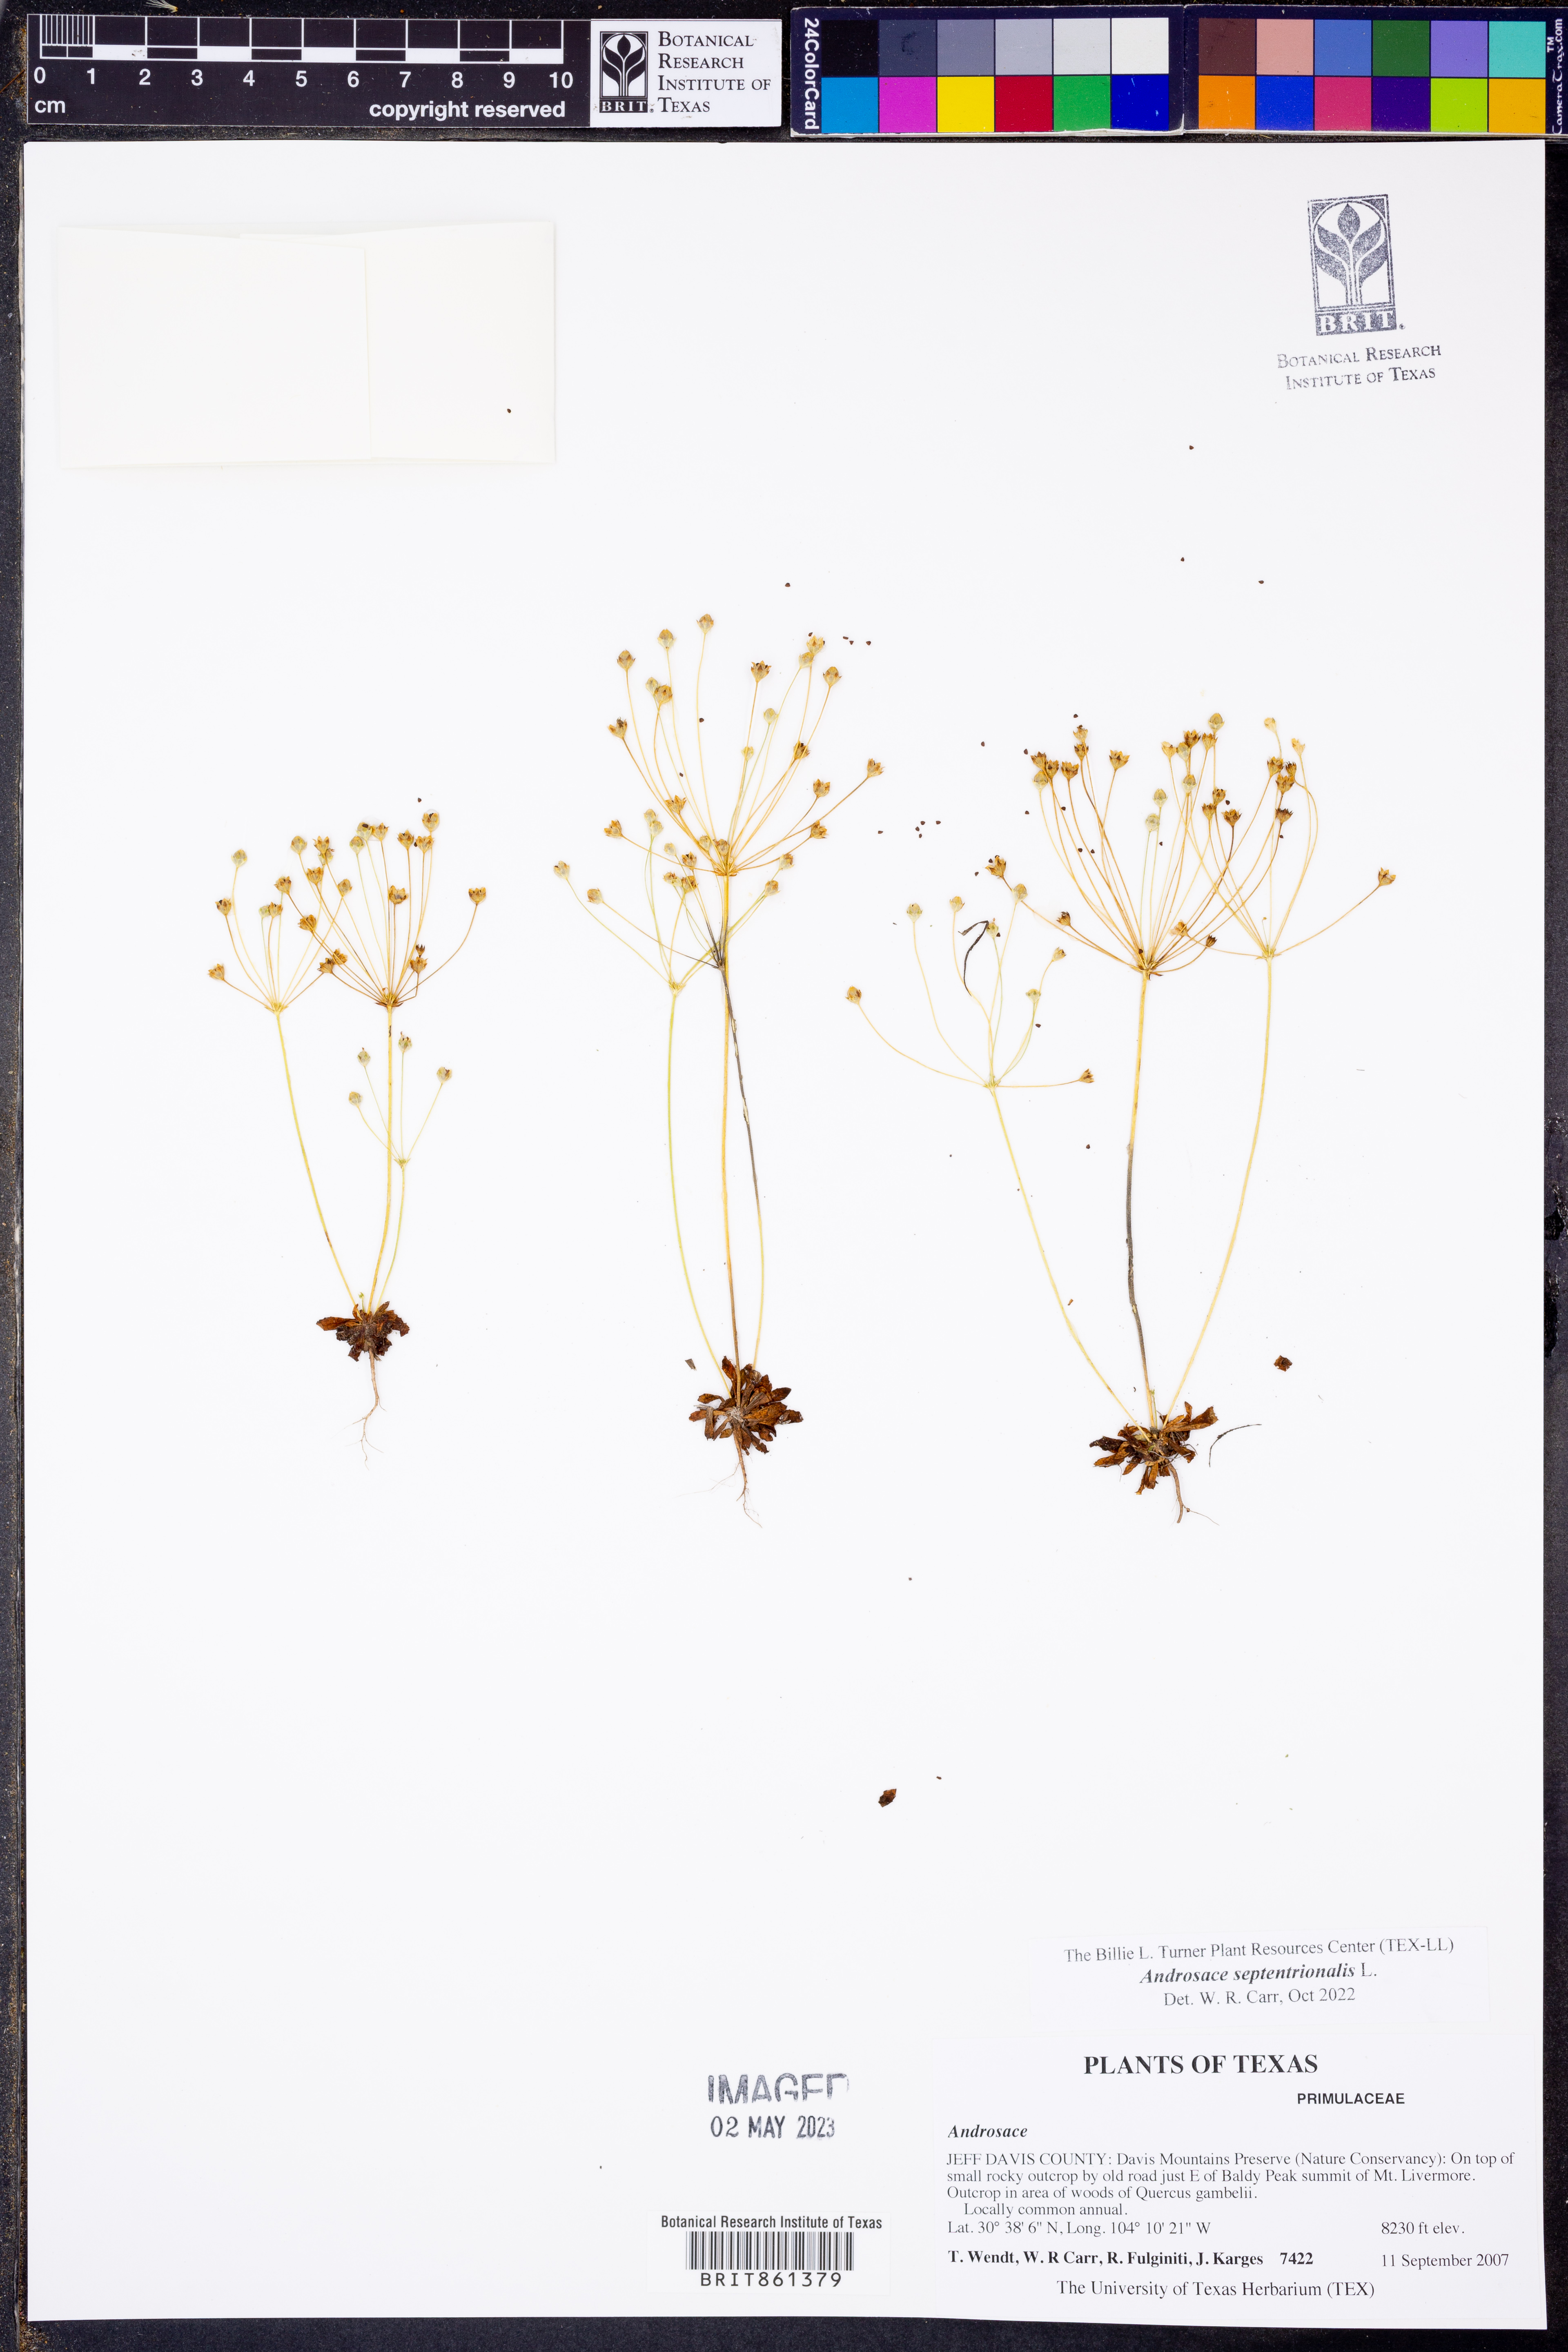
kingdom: Plantae
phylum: Tracheophyta
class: Magnoliopsida
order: Ericales
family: Primulaceae
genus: Androsace
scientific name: Androsace septentrionalis
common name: Hairy northern fairy-candelabra
